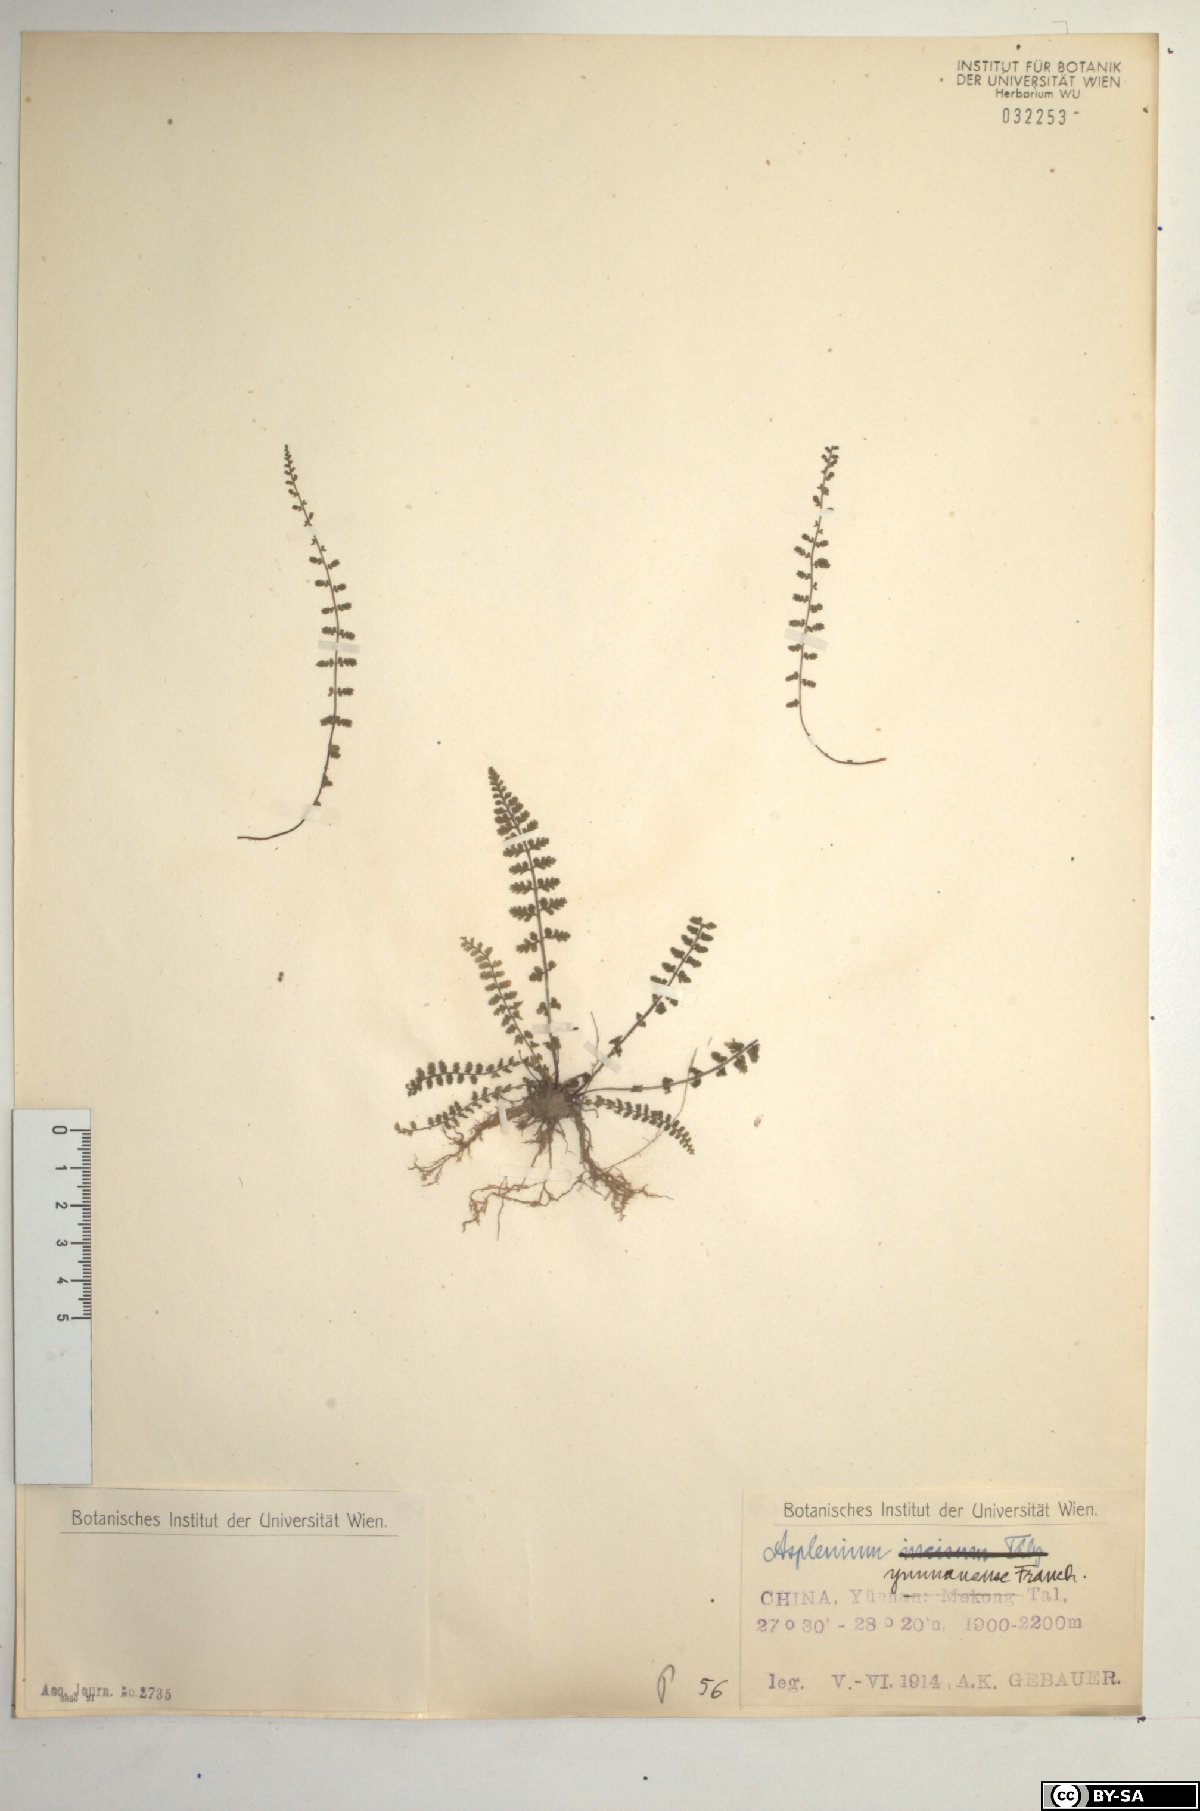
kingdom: Plantae
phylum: Tracheophyta
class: Polypodiopsida
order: Polypodiales
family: Aspleniaceae
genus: Asplenium
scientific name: Asplenium exiguum
